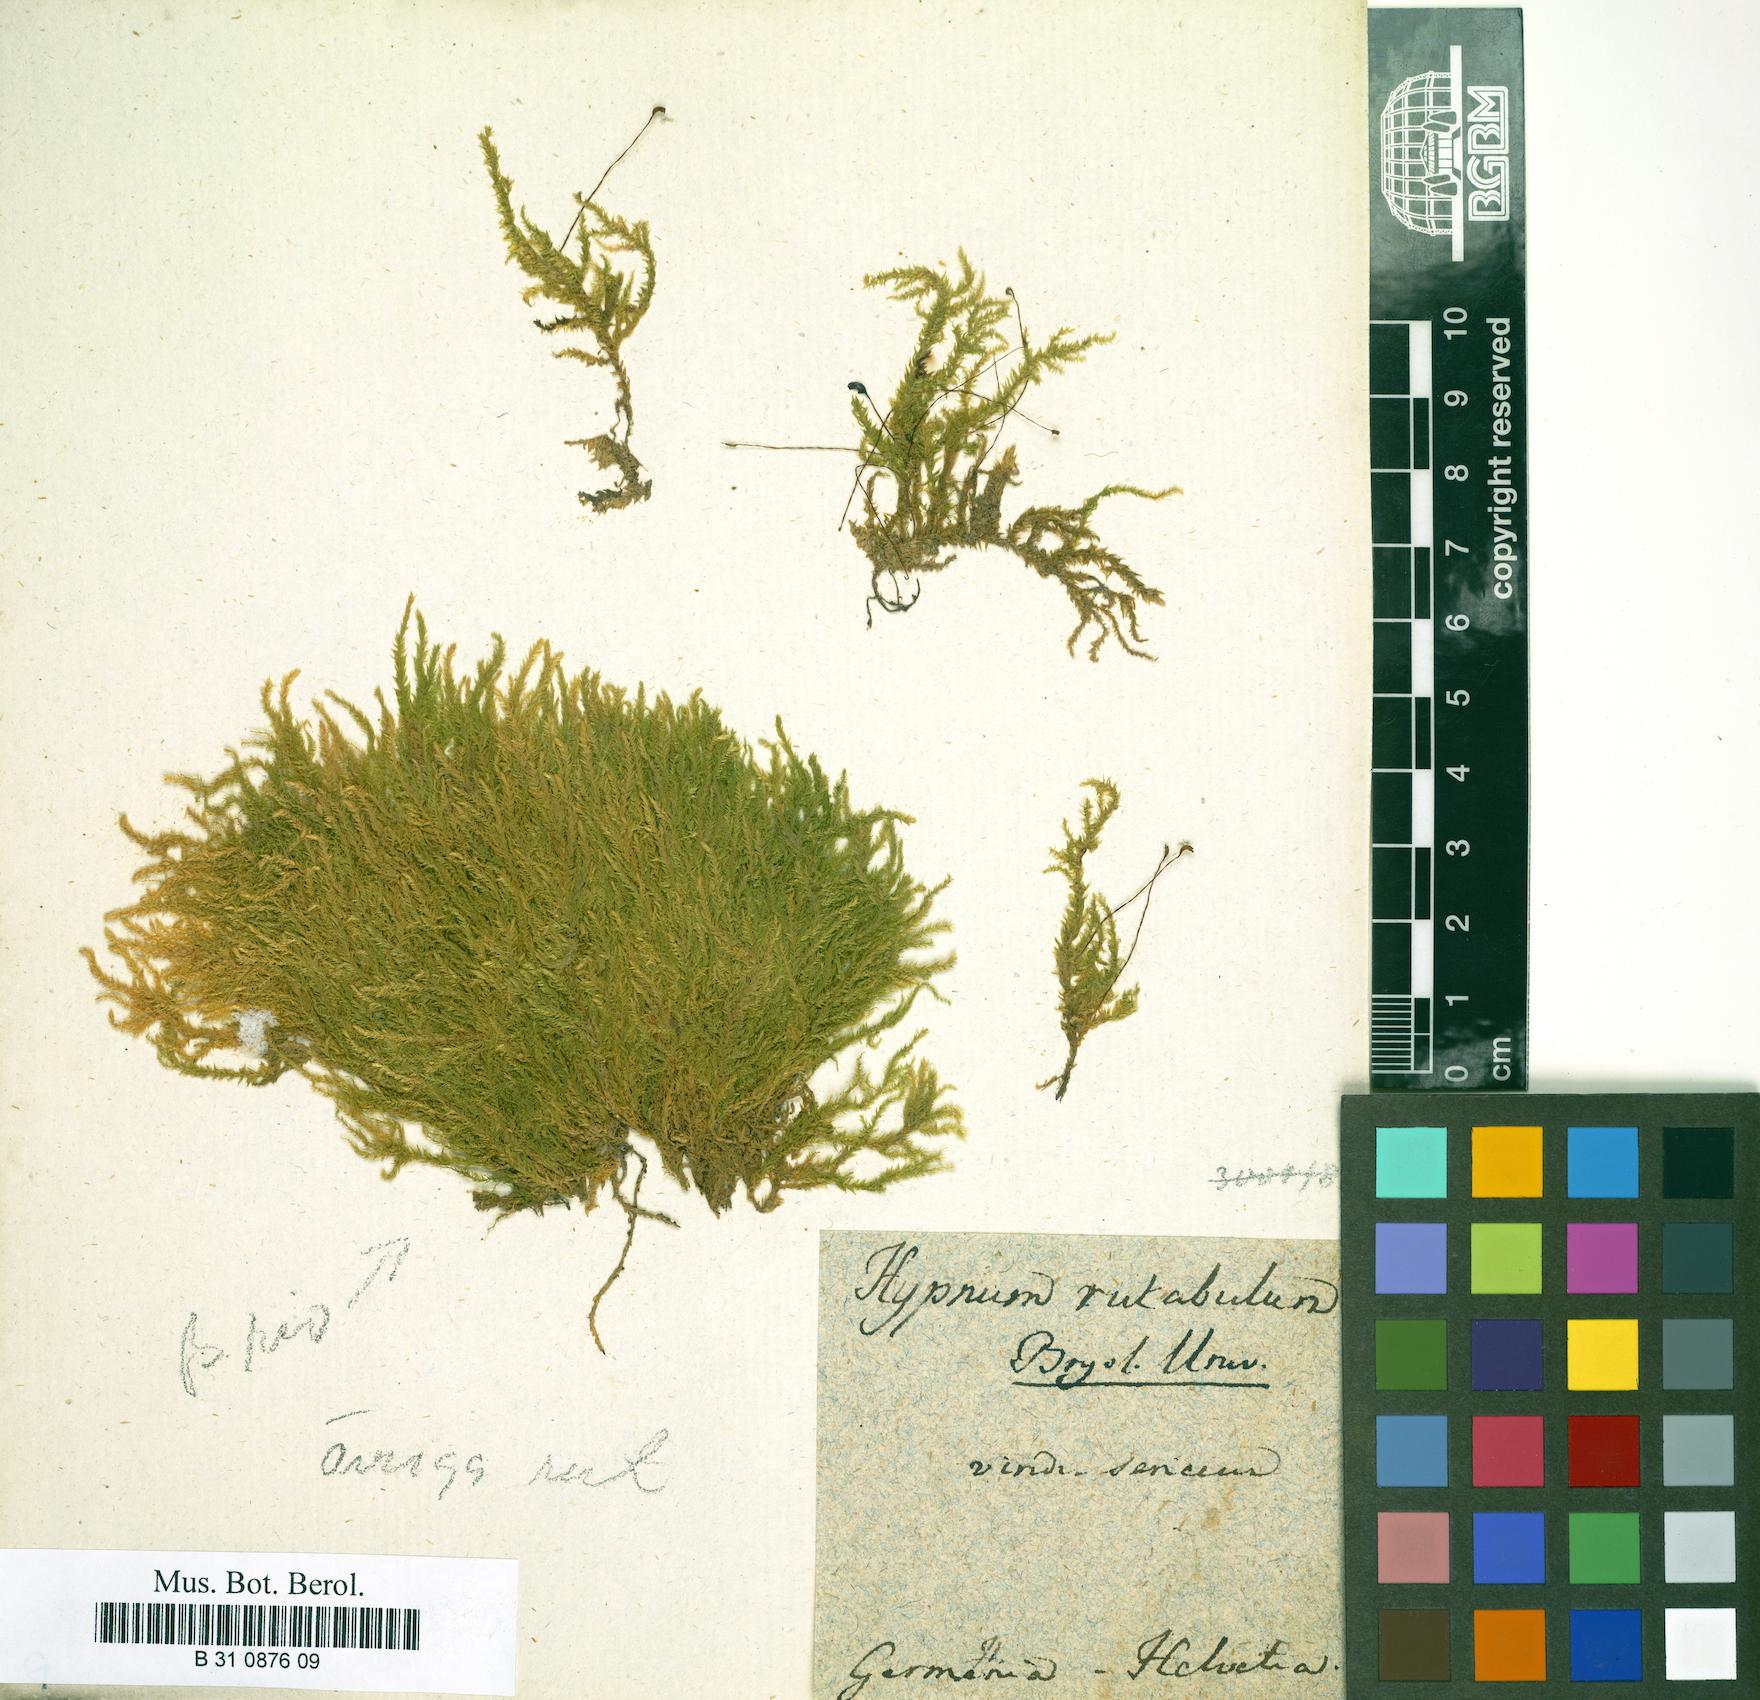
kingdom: Plantae
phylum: Bryophyta
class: Bryopsida
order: Hypnales
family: Brachytheciaceae
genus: Brachythecium
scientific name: Brachythecium rutabulum
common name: Rough-stalked feather-moss
